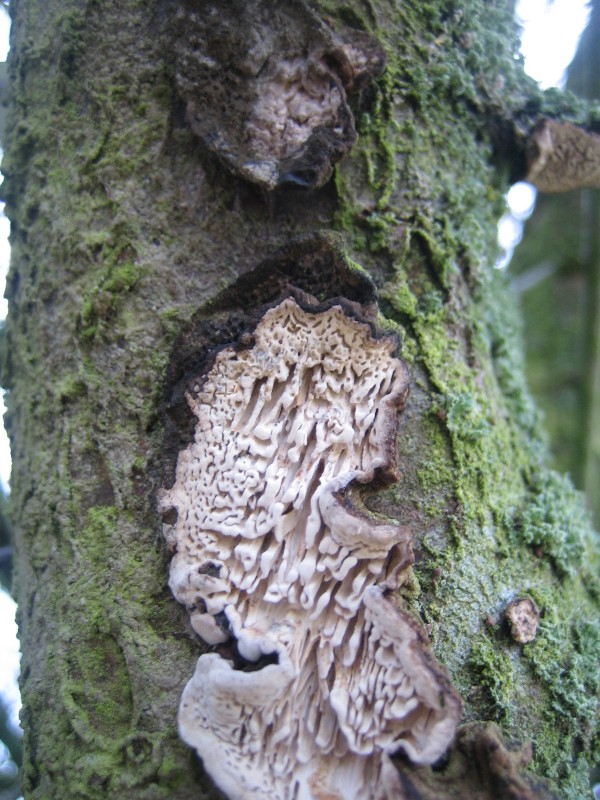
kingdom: Fungi
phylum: Basidiomycota
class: Agaricomycetes
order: Polyporales
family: Polyporaceae
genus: Podofomes
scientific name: Podofomes mollis
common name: blød begporesvamp
